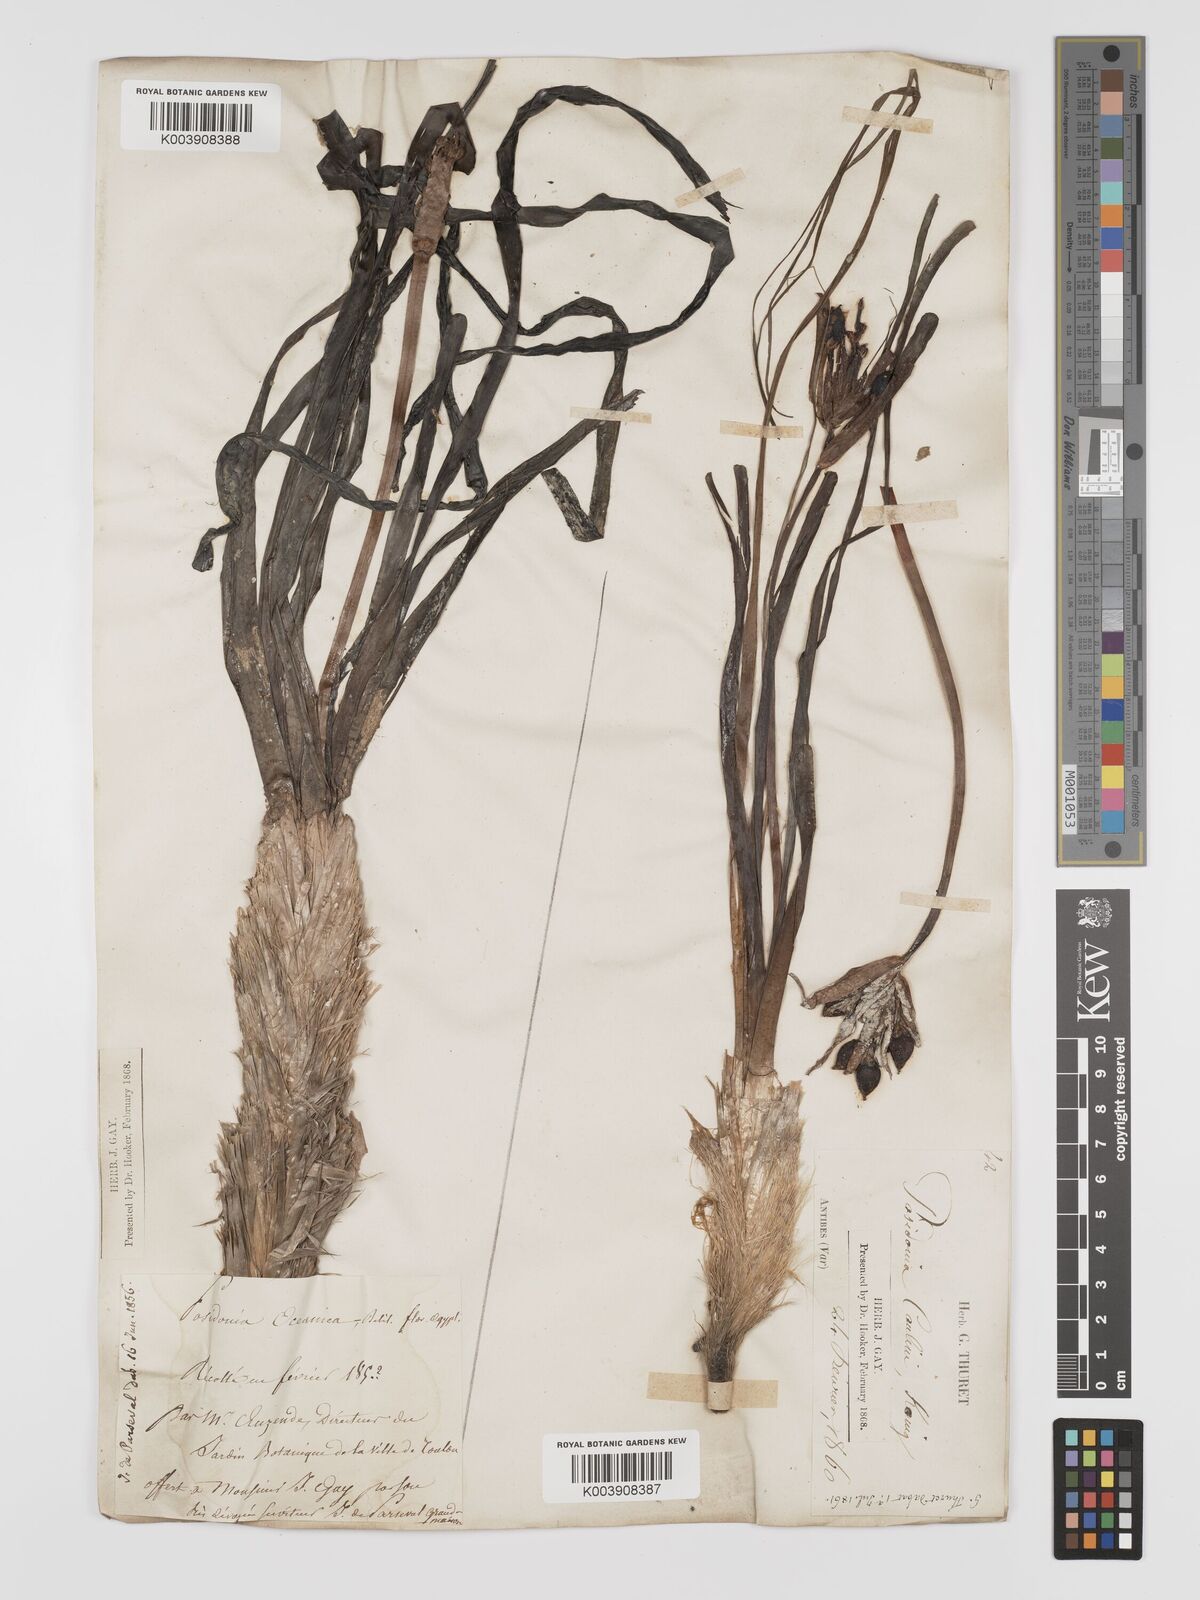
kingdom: Plantae
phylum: Tracheophyta
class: Liliopsida
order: Alismatales
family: Posidoniaceae
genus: Posidonia
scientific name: Posidonia oceanica
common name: Mediterranean tapeweed
